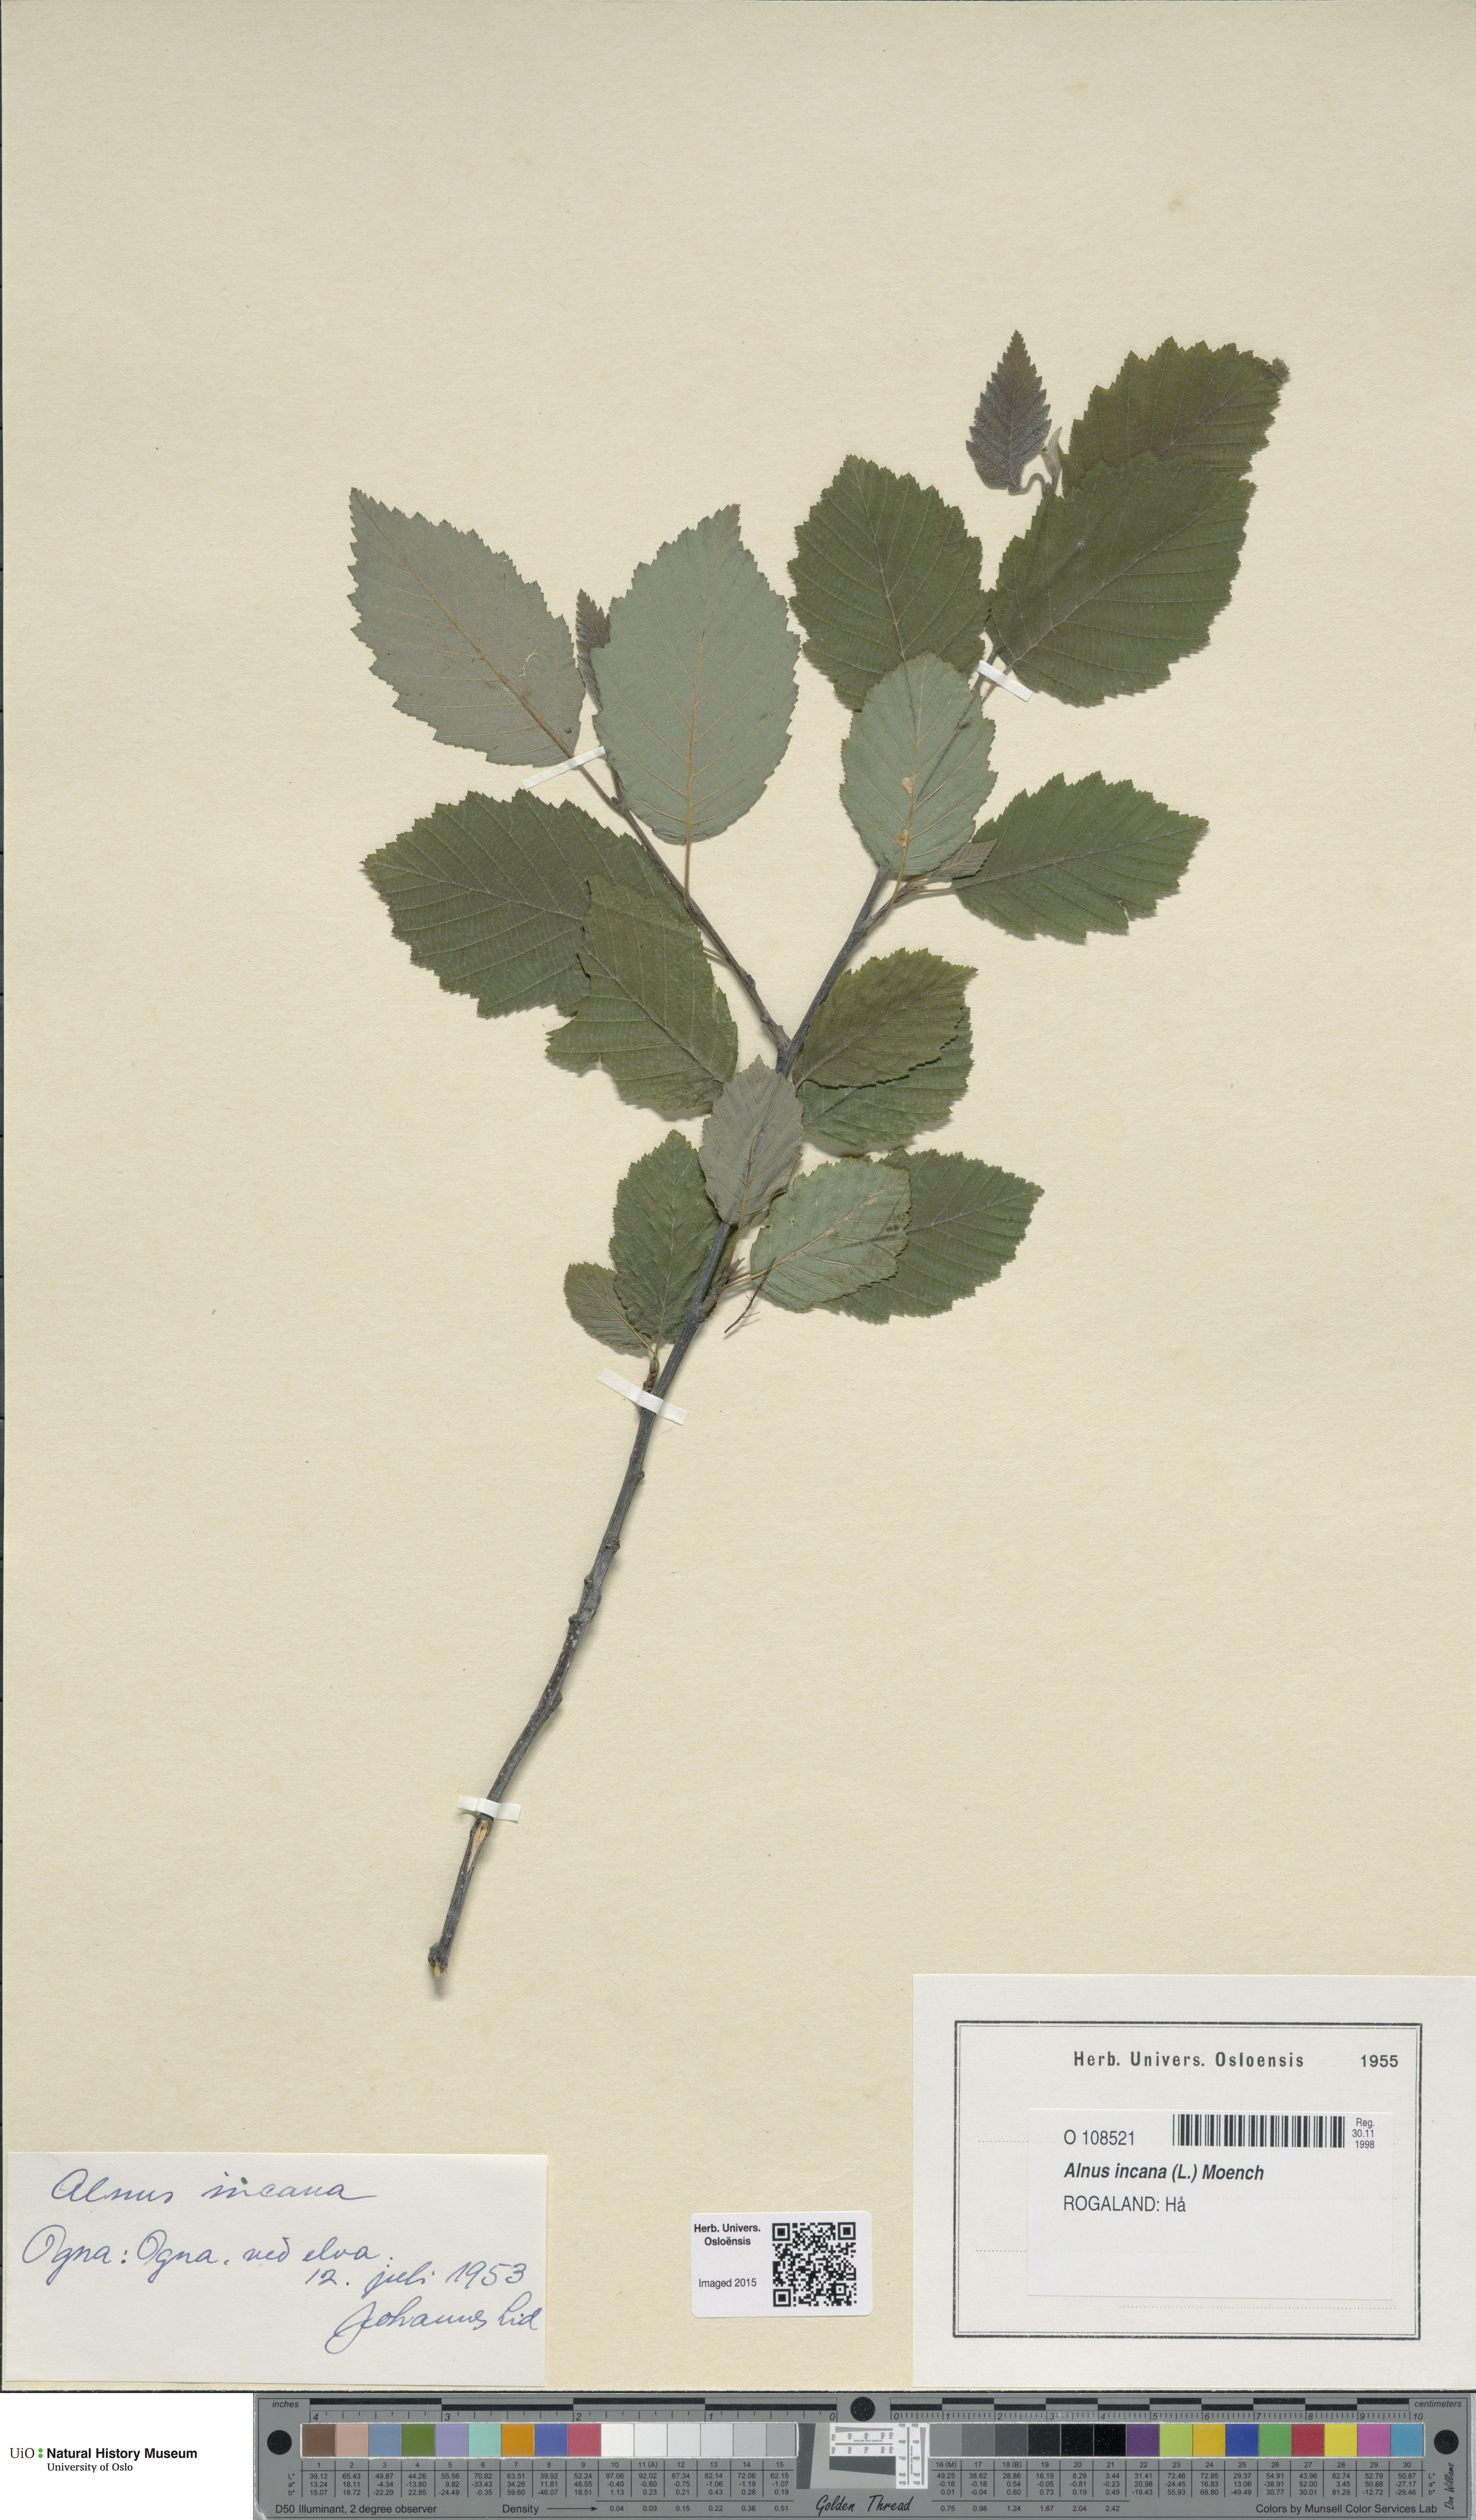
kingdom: Plantae
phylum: Tracheophyta
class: Magnoliopsida
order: Fagales
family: Betulaceae
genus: Alnus
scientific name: Alnus incana
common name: Grey alder
